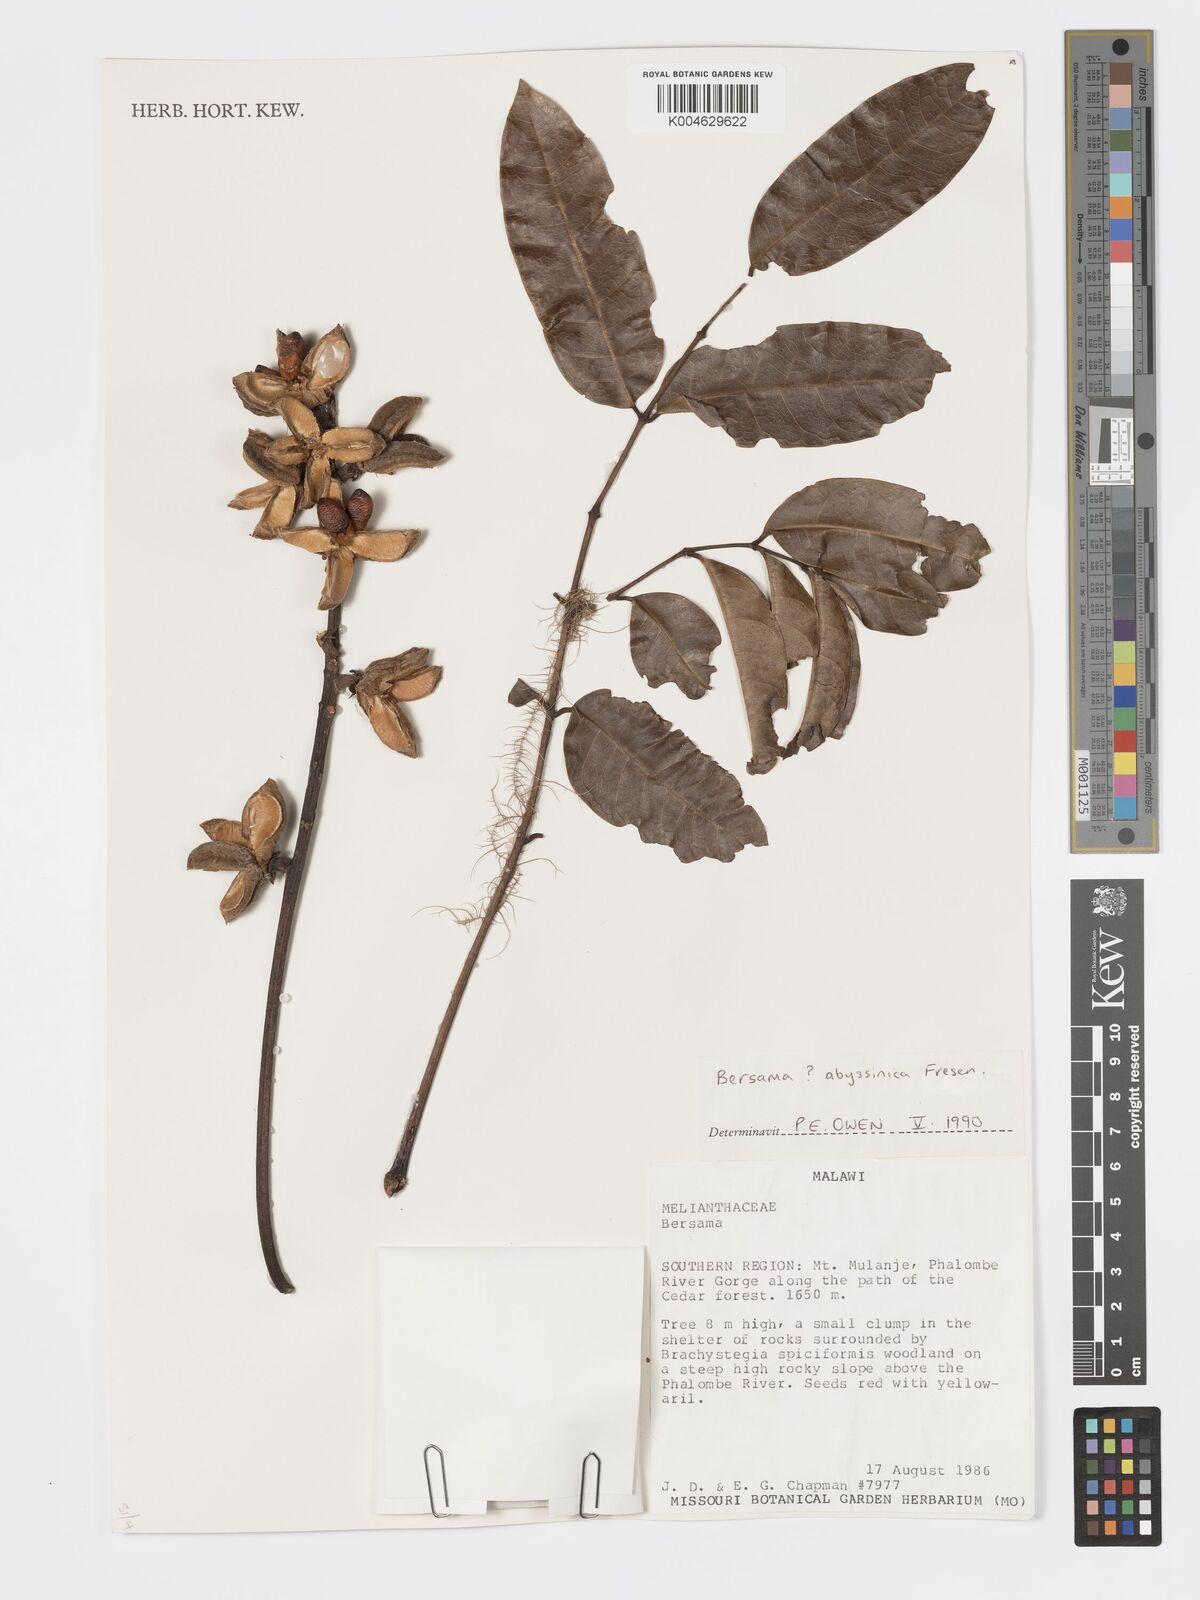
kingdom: Plantae
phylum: Tracheophyta
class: Magnoliopsida
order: Geraniales
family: Melianthaceae
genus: Bersama
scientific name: Bersama abyssinica
